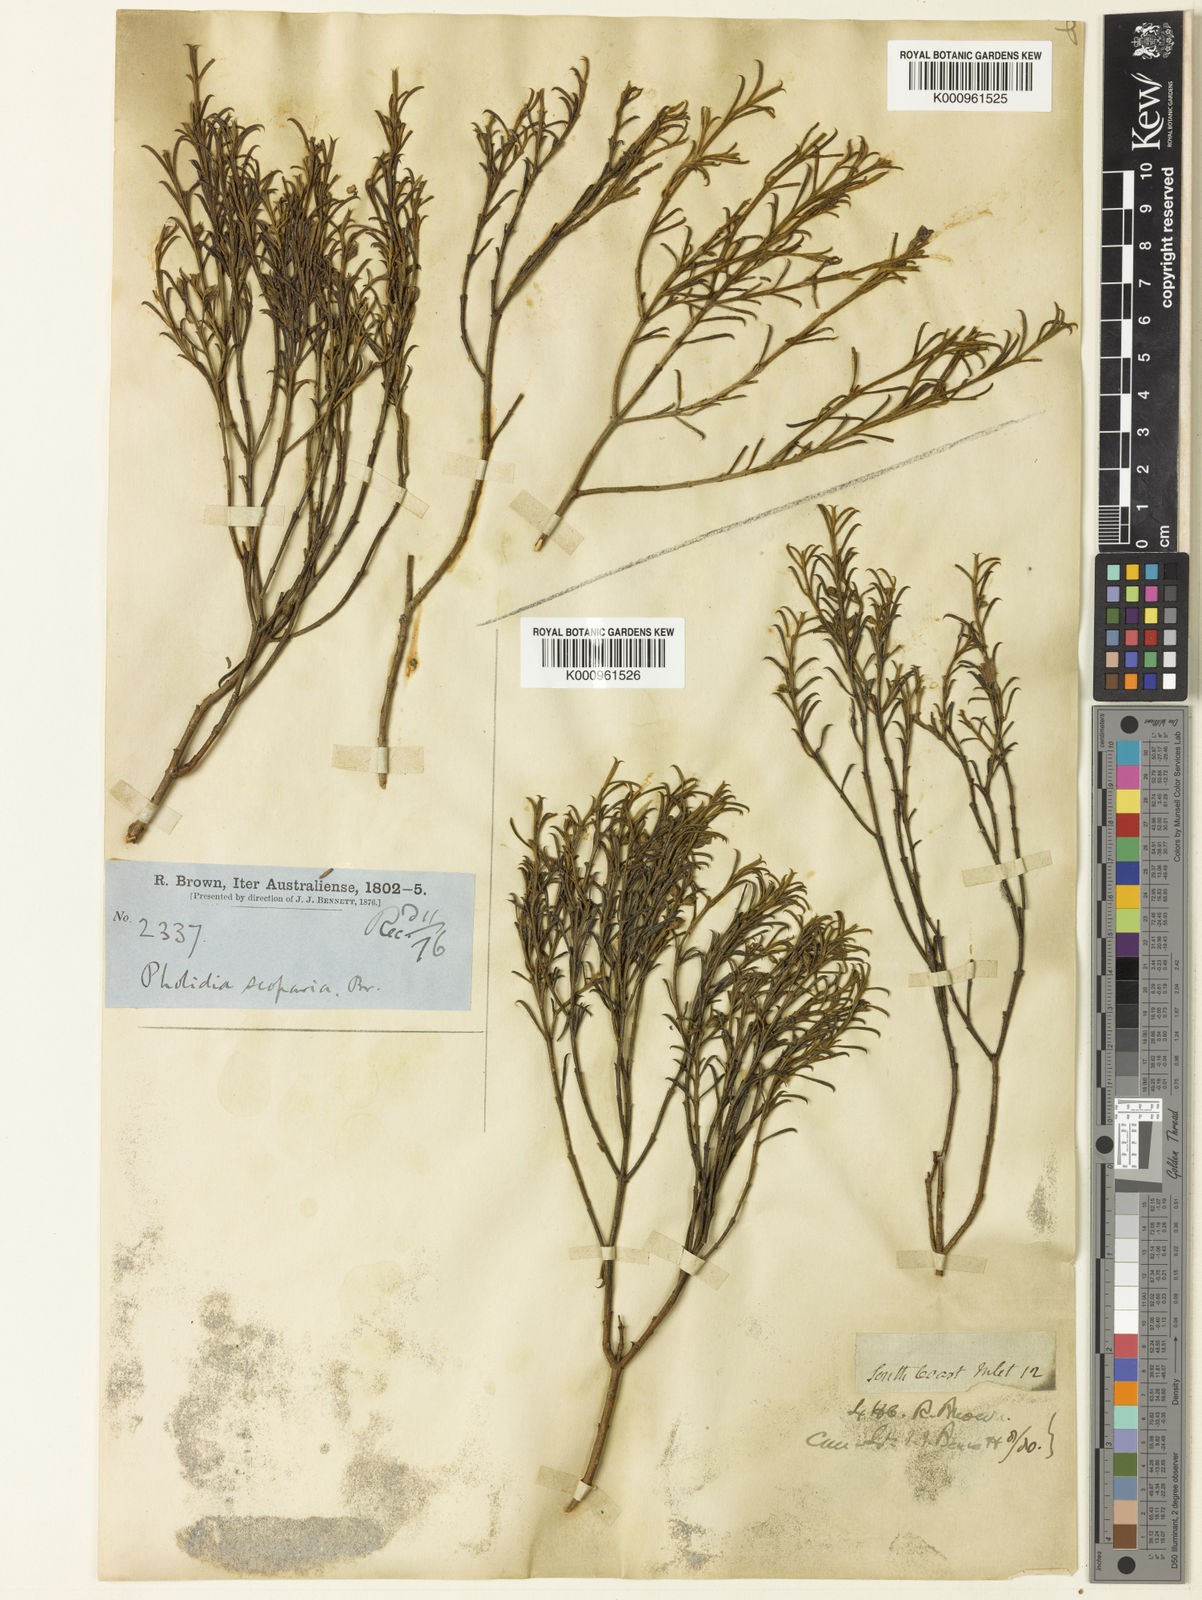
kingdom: Plantae
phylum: Tracheophyta
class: Magnoliopsida
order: Lamiales
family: Scrophulariaceae
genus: Eremophila
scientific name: Eremophila scoparia
